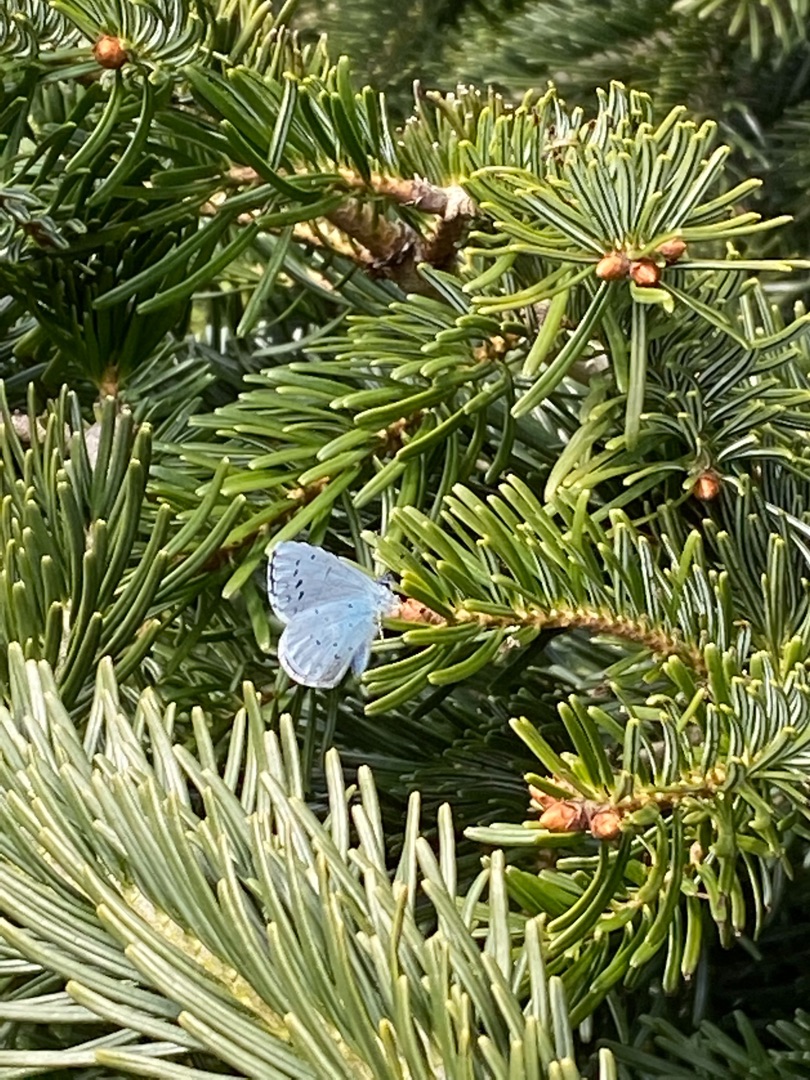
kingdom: Animalia
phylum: Arthropoda
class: Insecta
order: Lepidoptera
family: Lycaenidae
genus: Celastrina
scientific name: Celastrina argiolus
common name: Skovblåfugl
